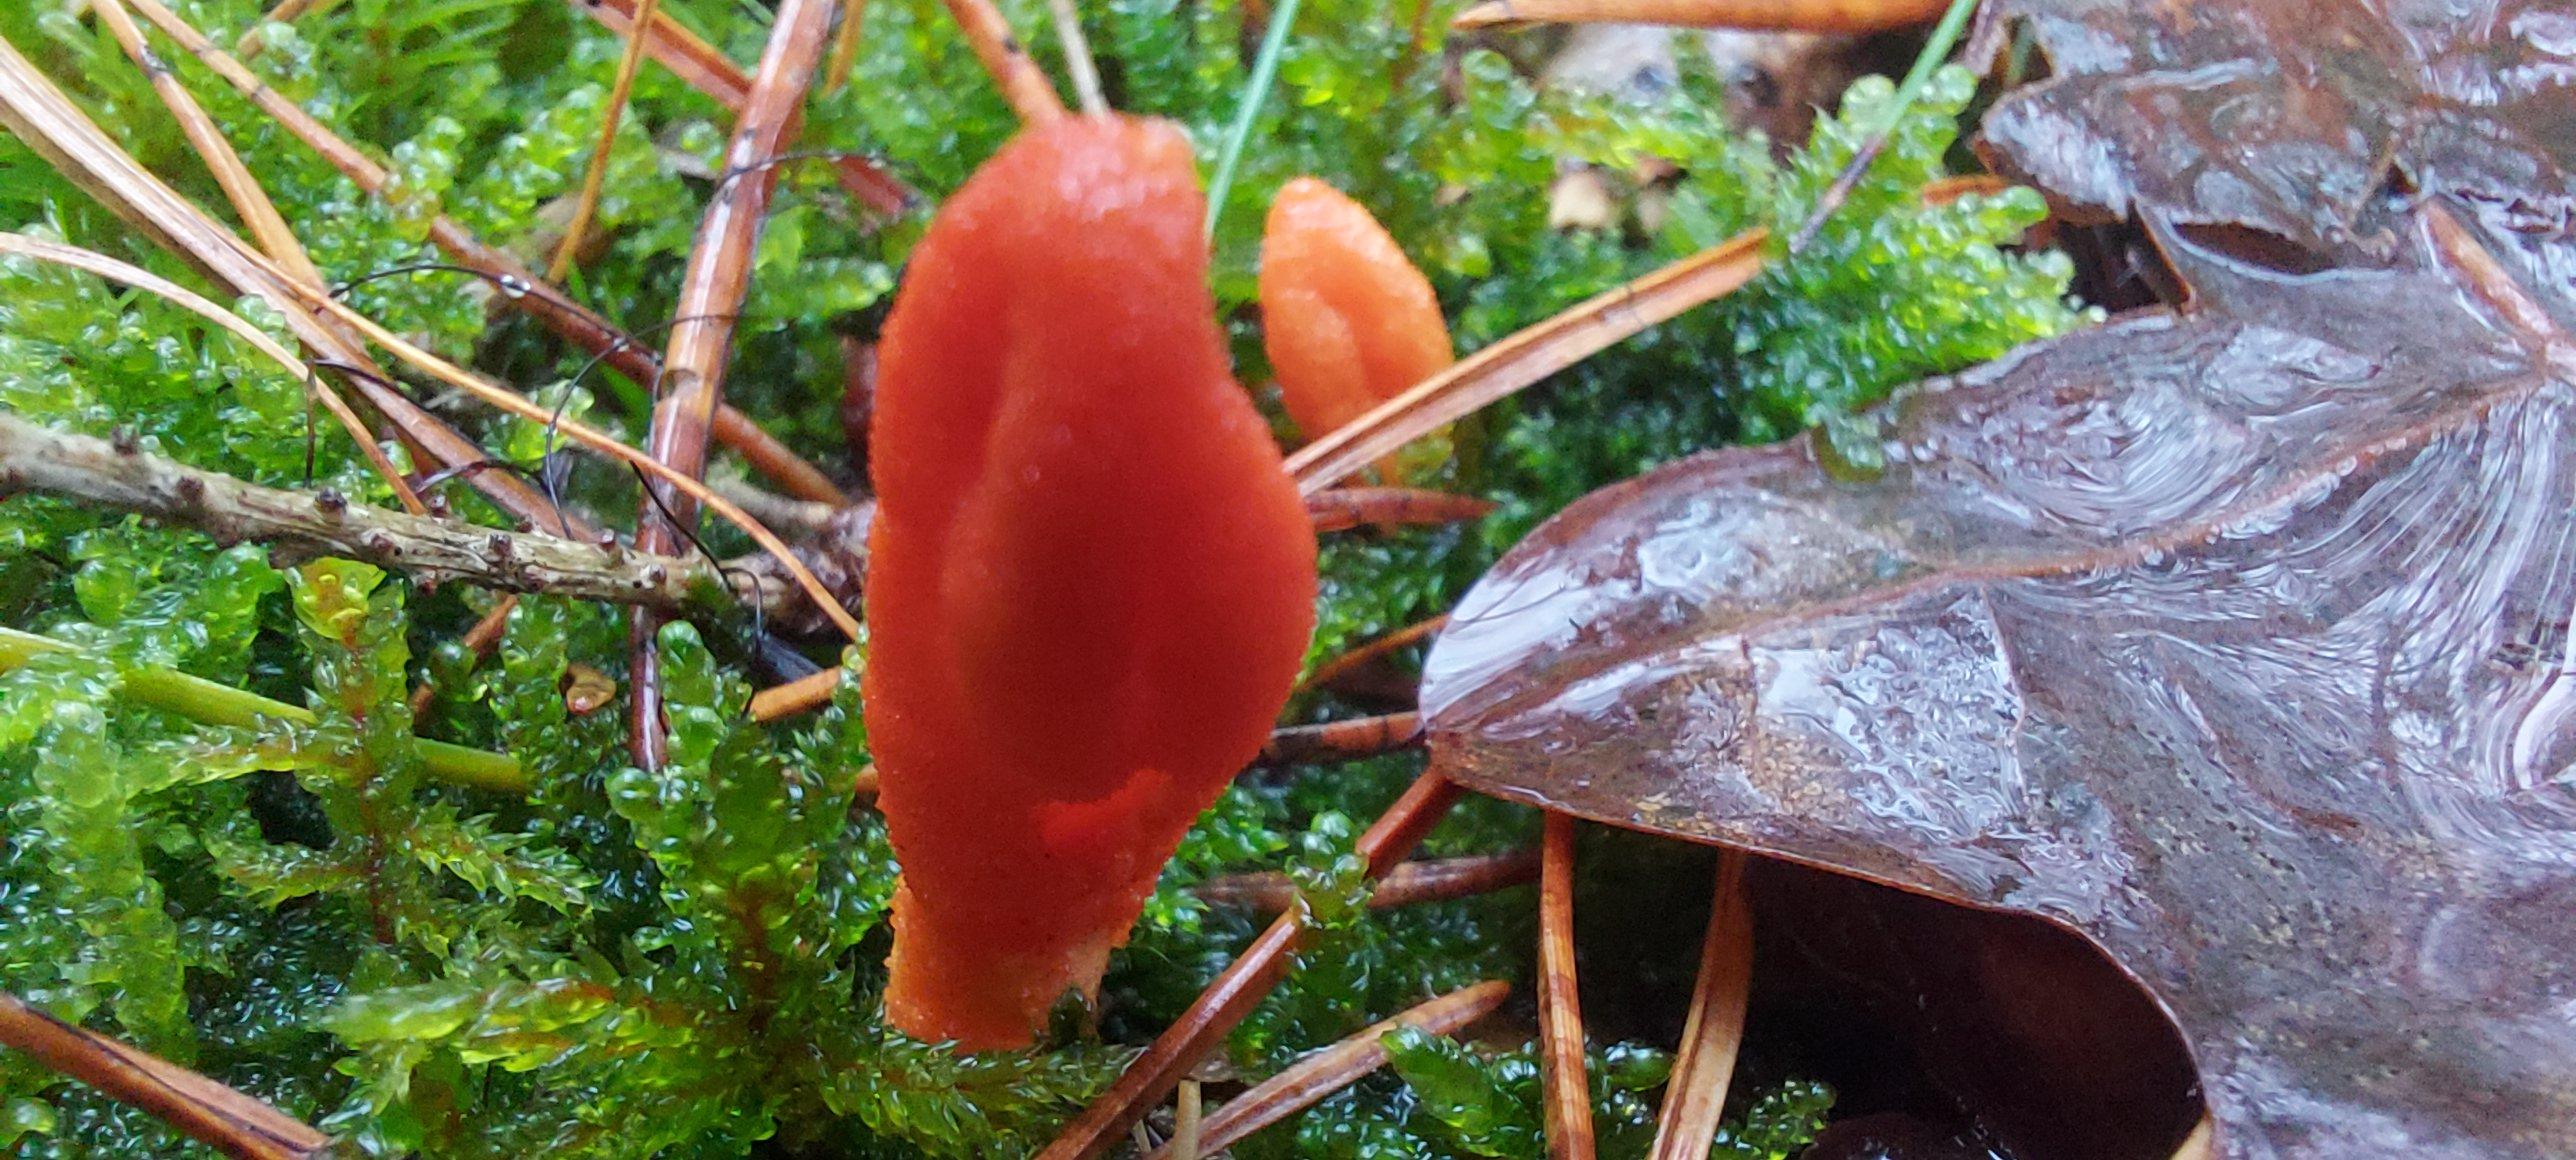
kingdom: Fungi
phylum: Ascomycota
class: Sordariomycetes
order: Hypocreales
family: Cordycipitaceae
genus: Cordyceps
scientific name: Cordyceps militaris
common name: puppe-snyltekølle
